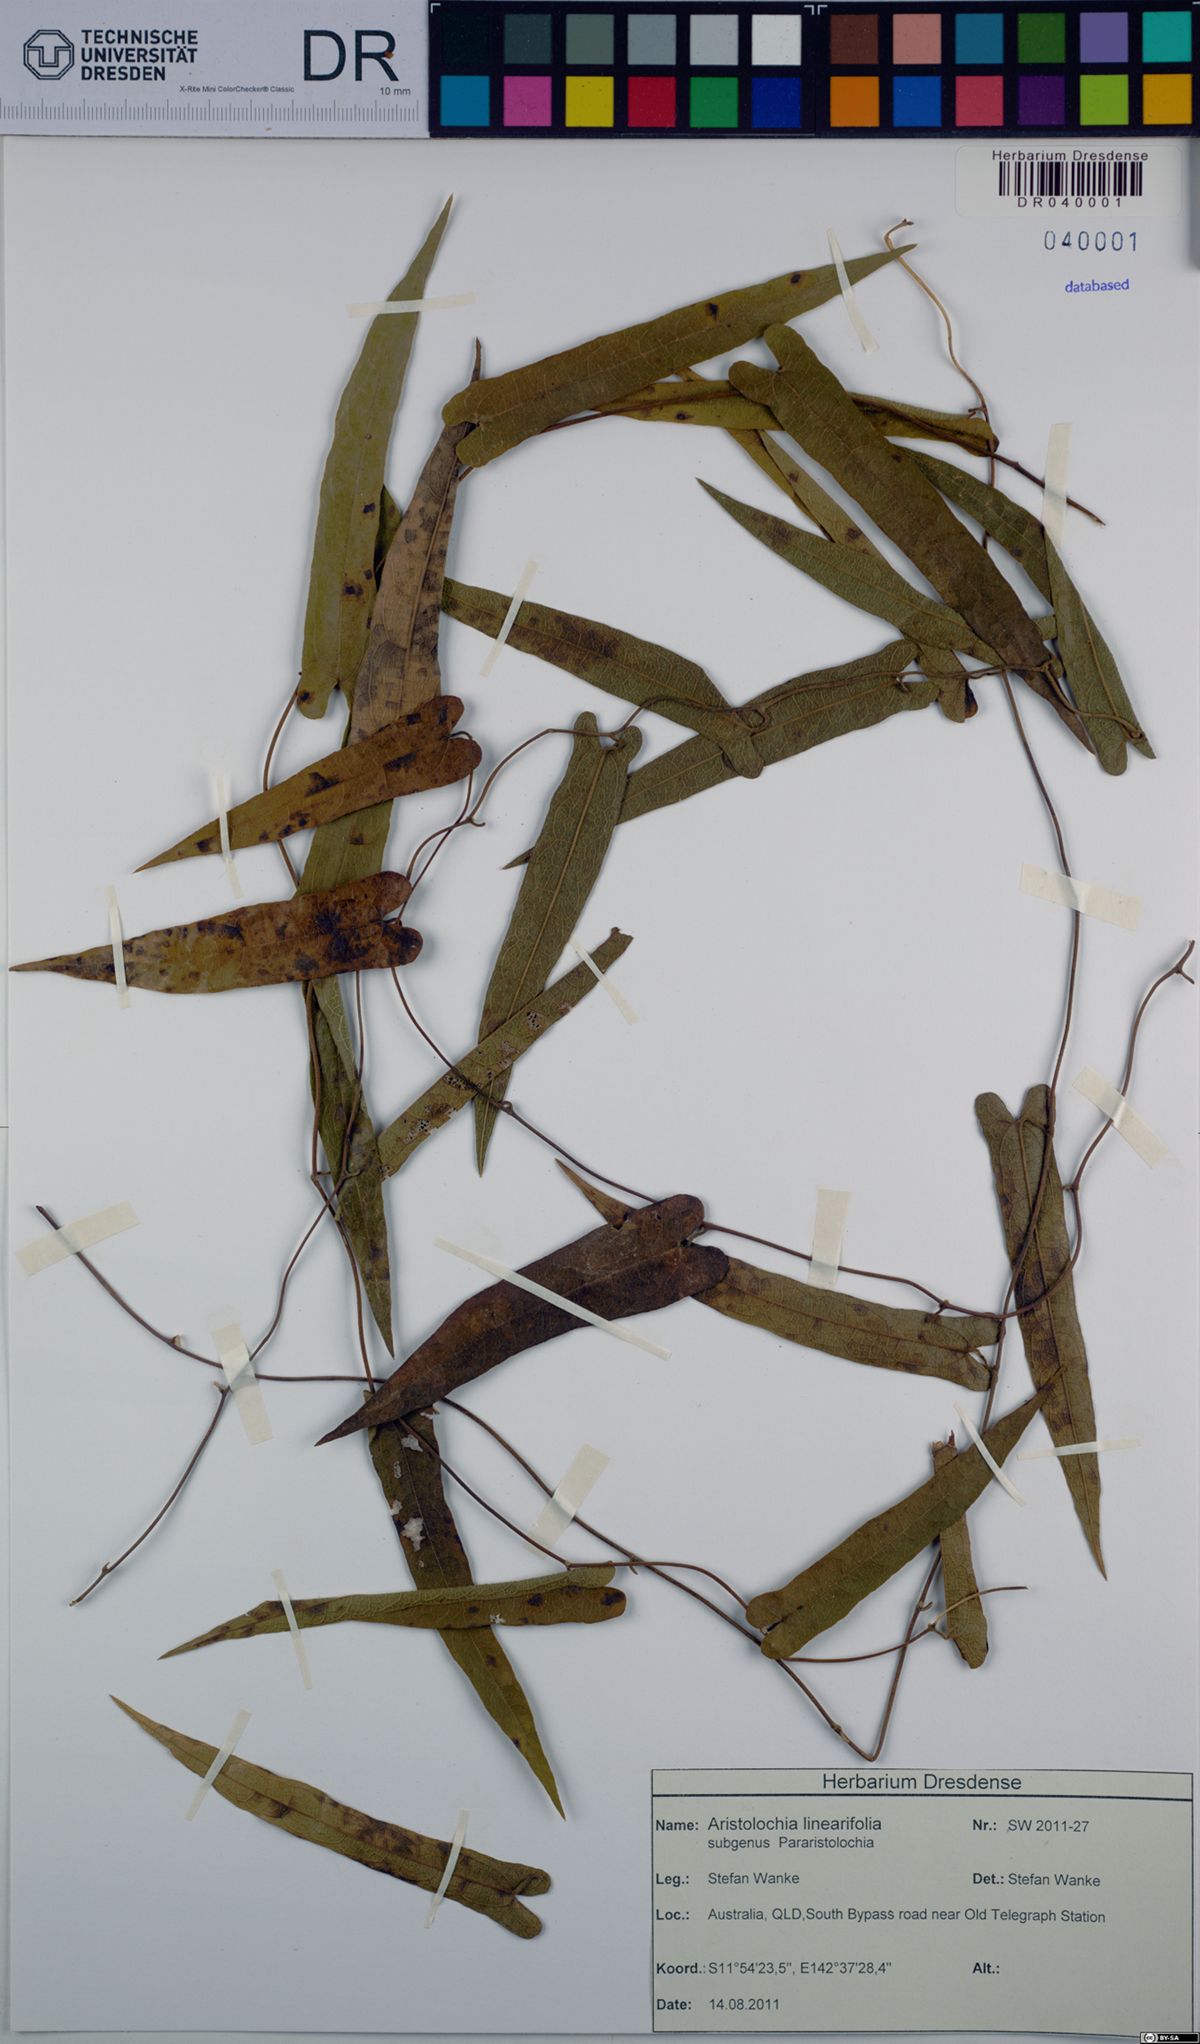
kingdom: Plantae
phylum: Tracheophyta
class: Magnoliopsida
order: Piperales
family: Aristolochiaceae
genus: Aristolochia
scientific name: Aristolochia linearifolia
